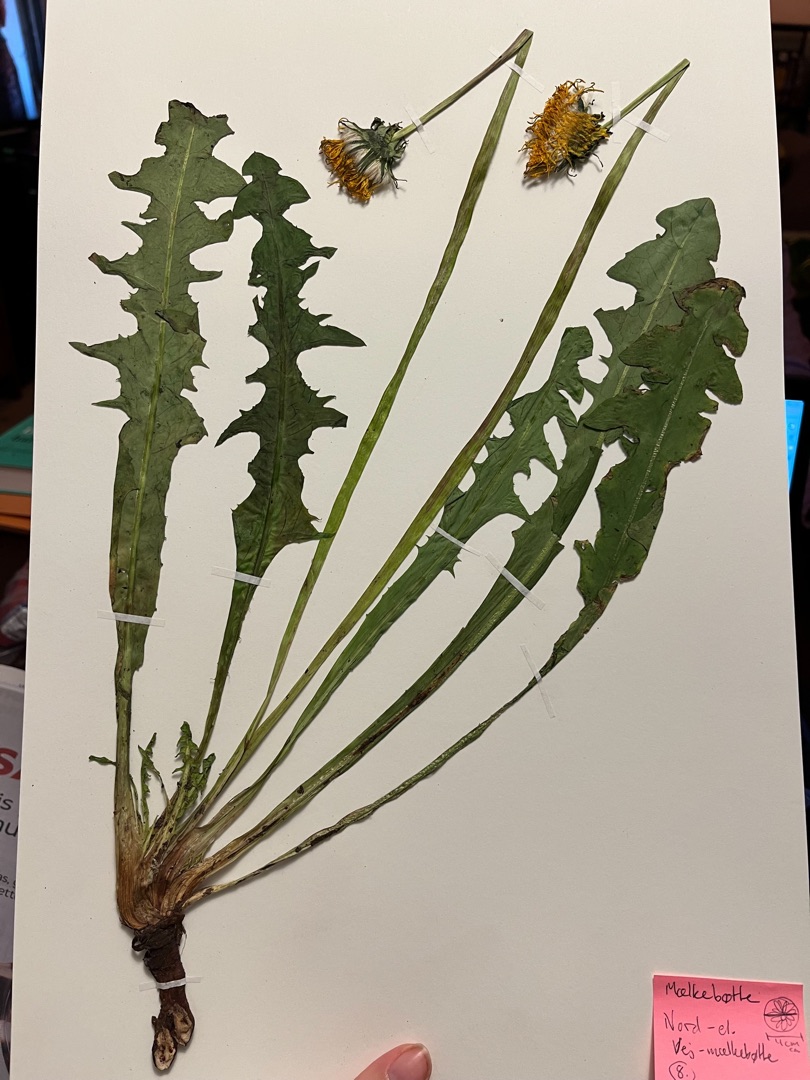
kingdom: Plantae
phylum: Tracheophyta
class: Magnoliopsida
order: Asterales
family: Asteraceae
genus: Taraxacum
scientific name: Taraxacum
